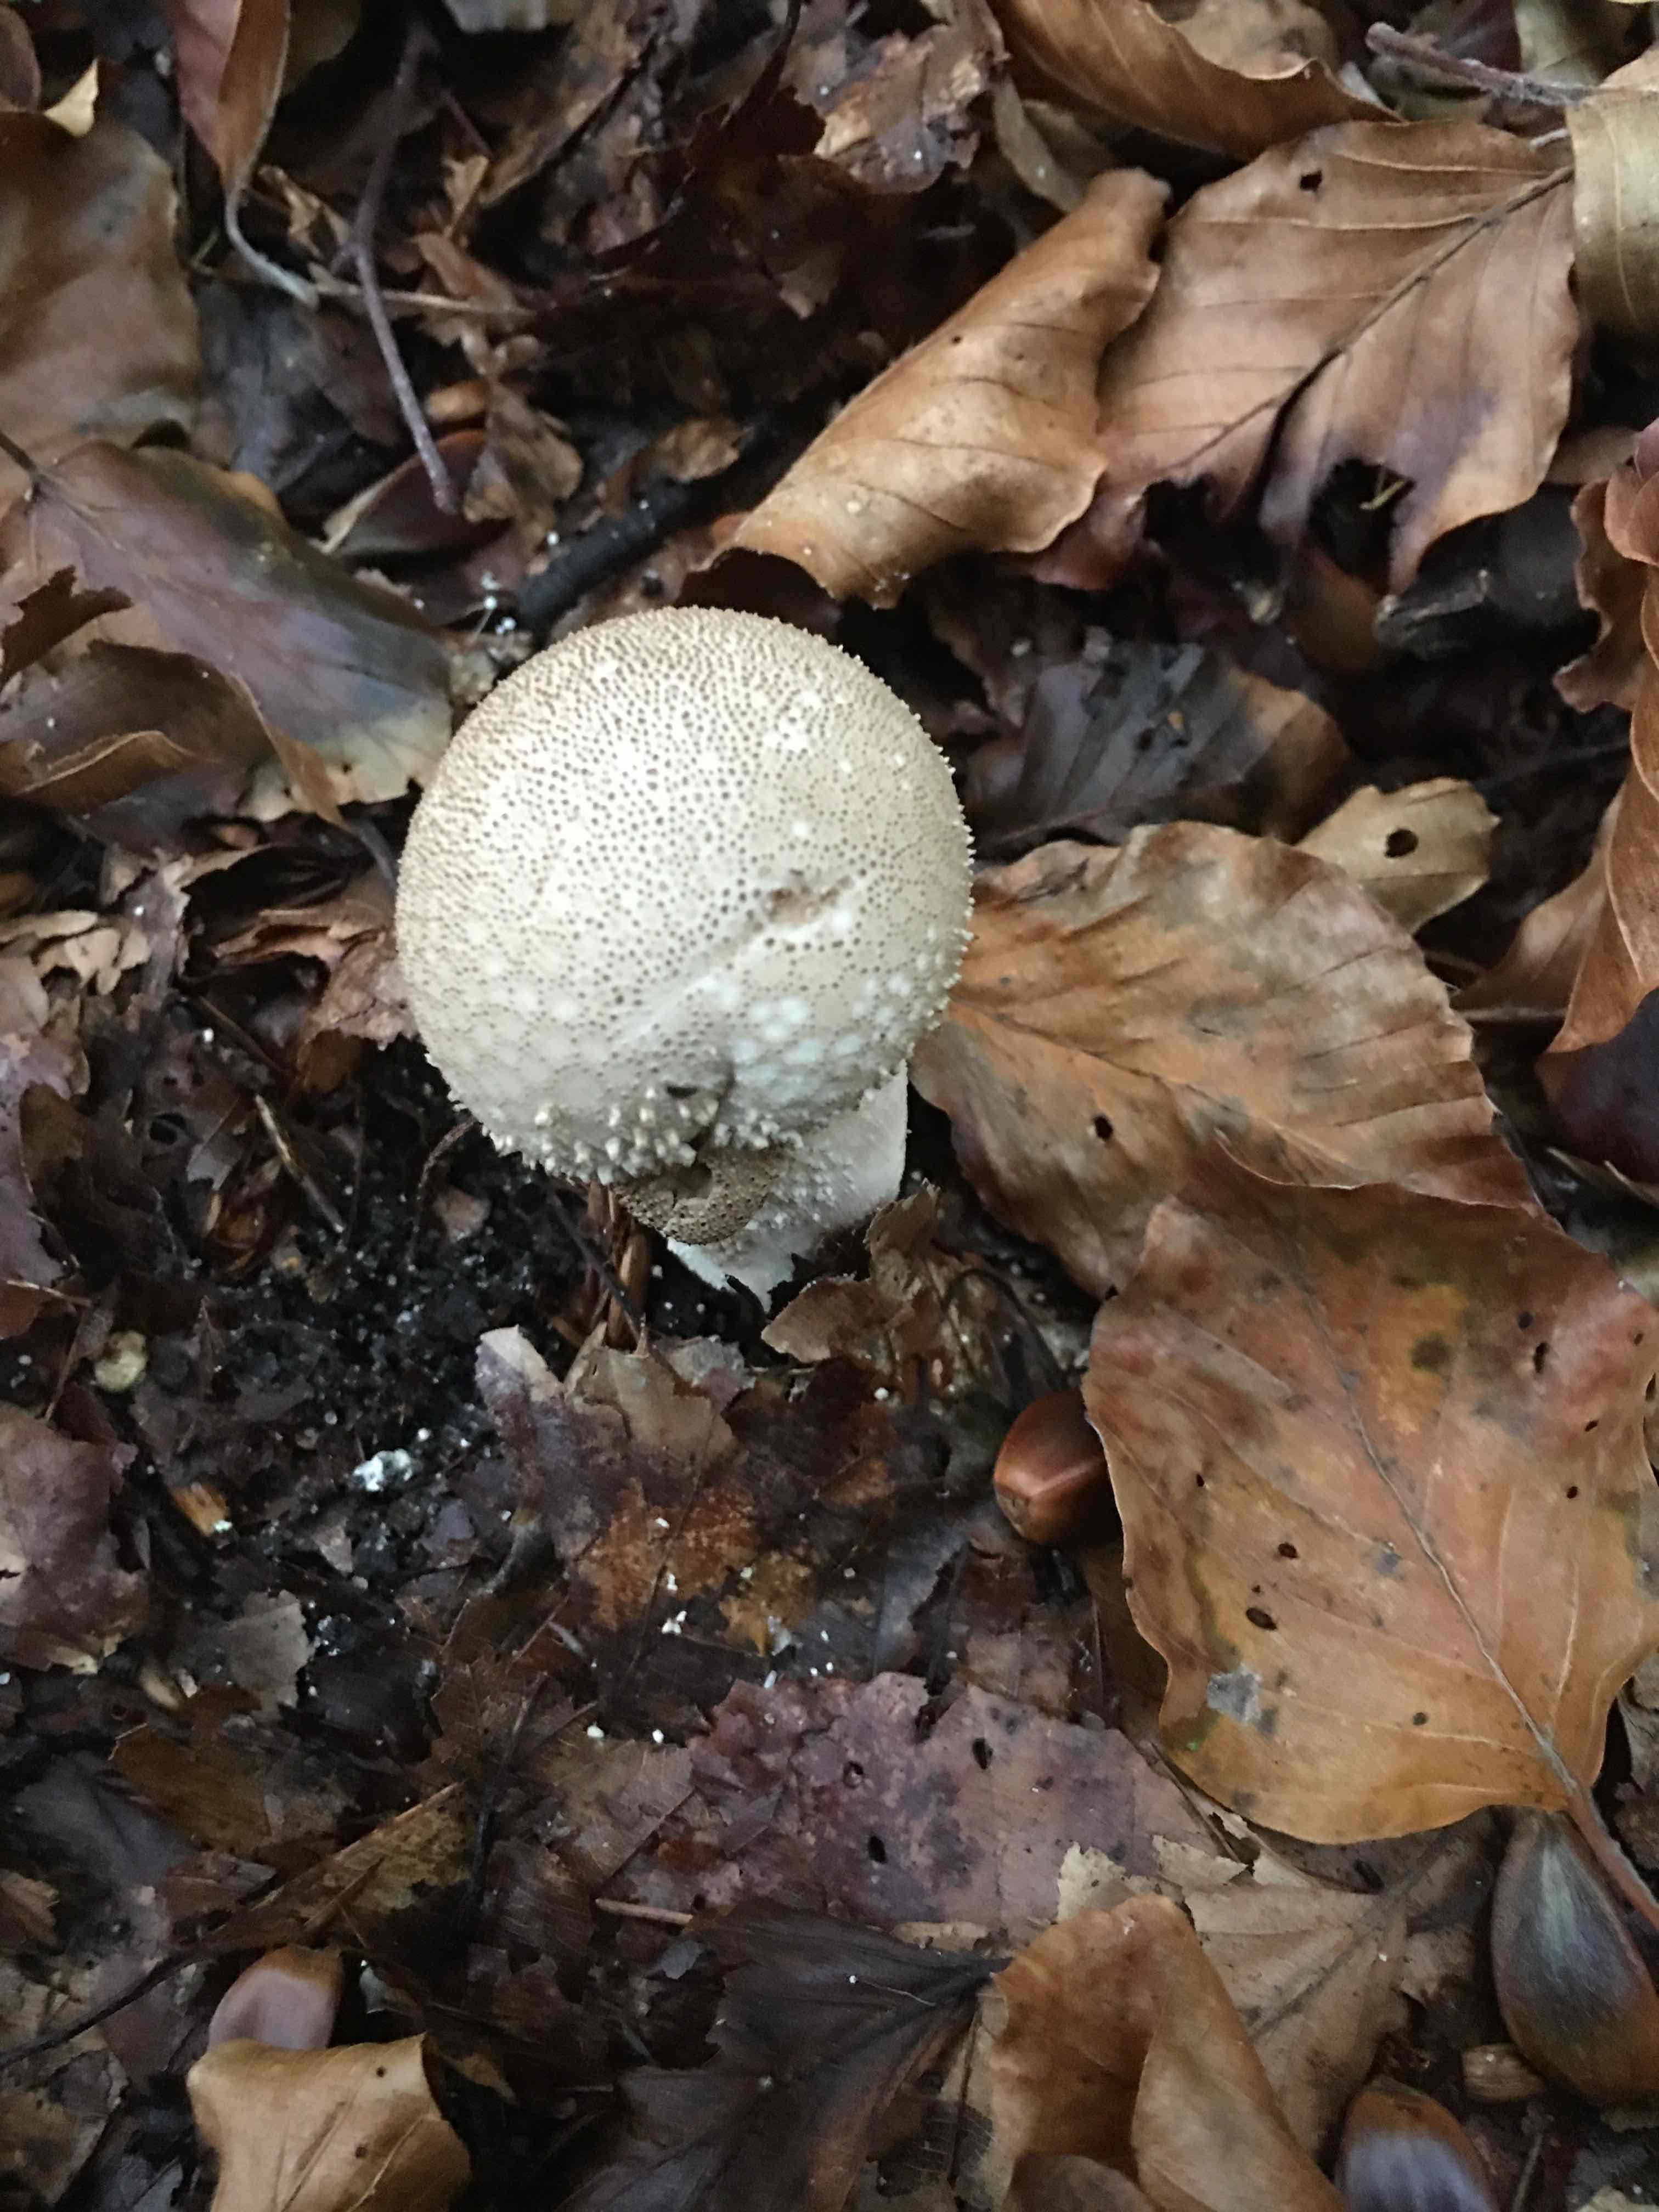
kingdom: Fungi
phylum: Basidiomycota
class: Agaricomycetes
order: Agaricales
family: Lycoperdaceae
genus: Lycoperdon
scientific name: Lycoperdon perlatum
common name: krystal-støvbold
